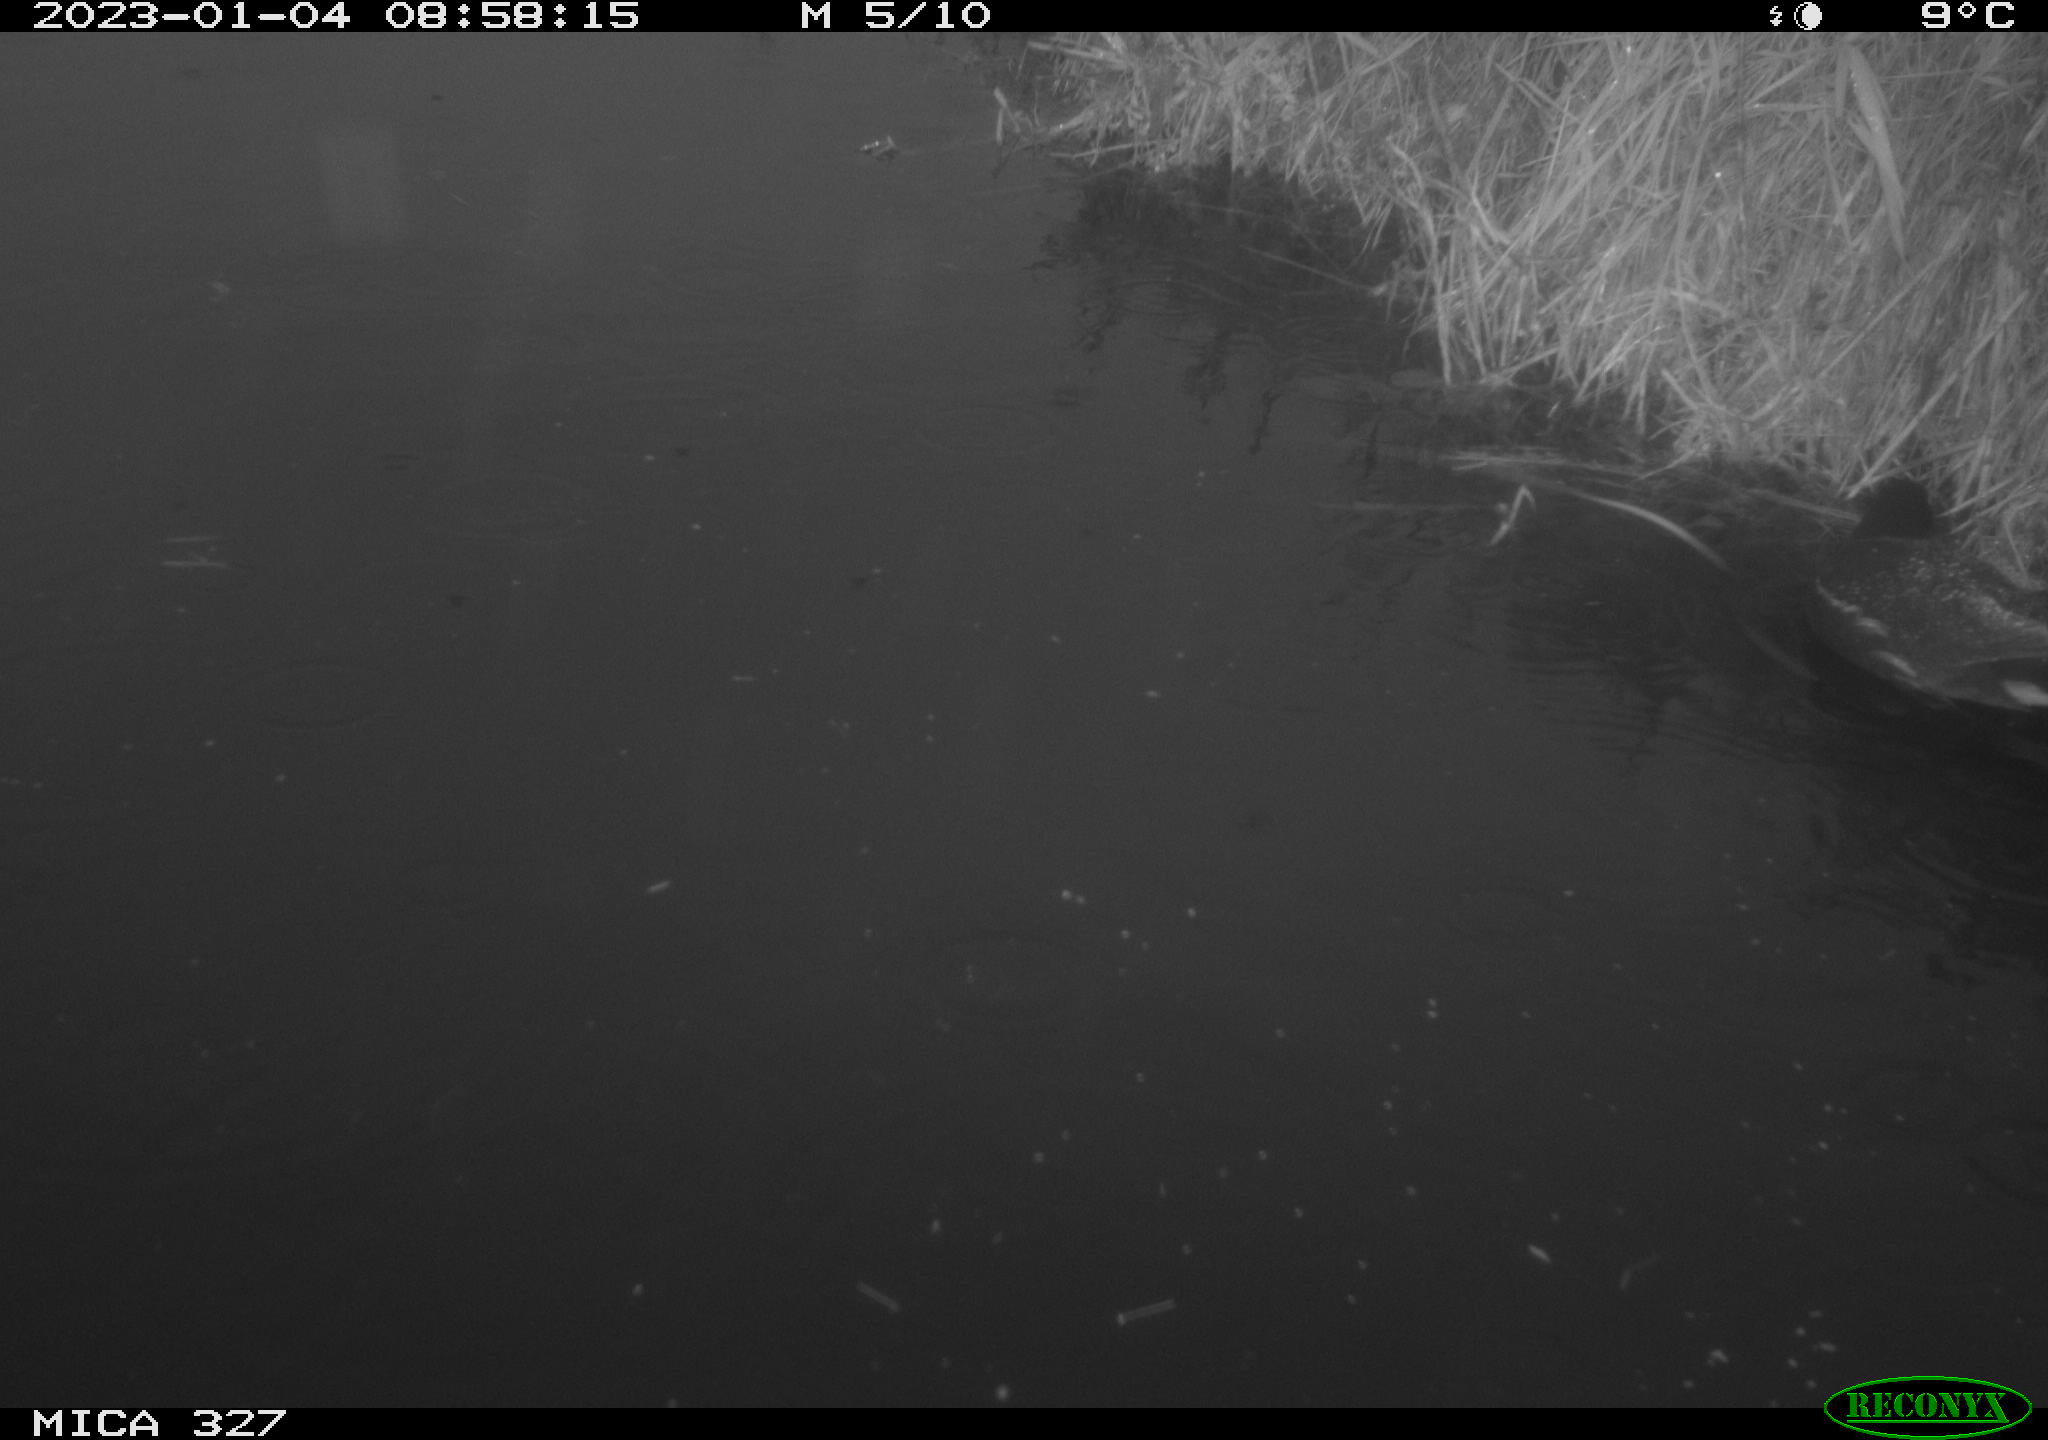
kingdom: Animalia
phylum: Chordata
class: Aves
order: Gruiformes
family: Rallidae
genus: Gallinula
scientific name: Gallinula chloropus
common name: Common moorhen
